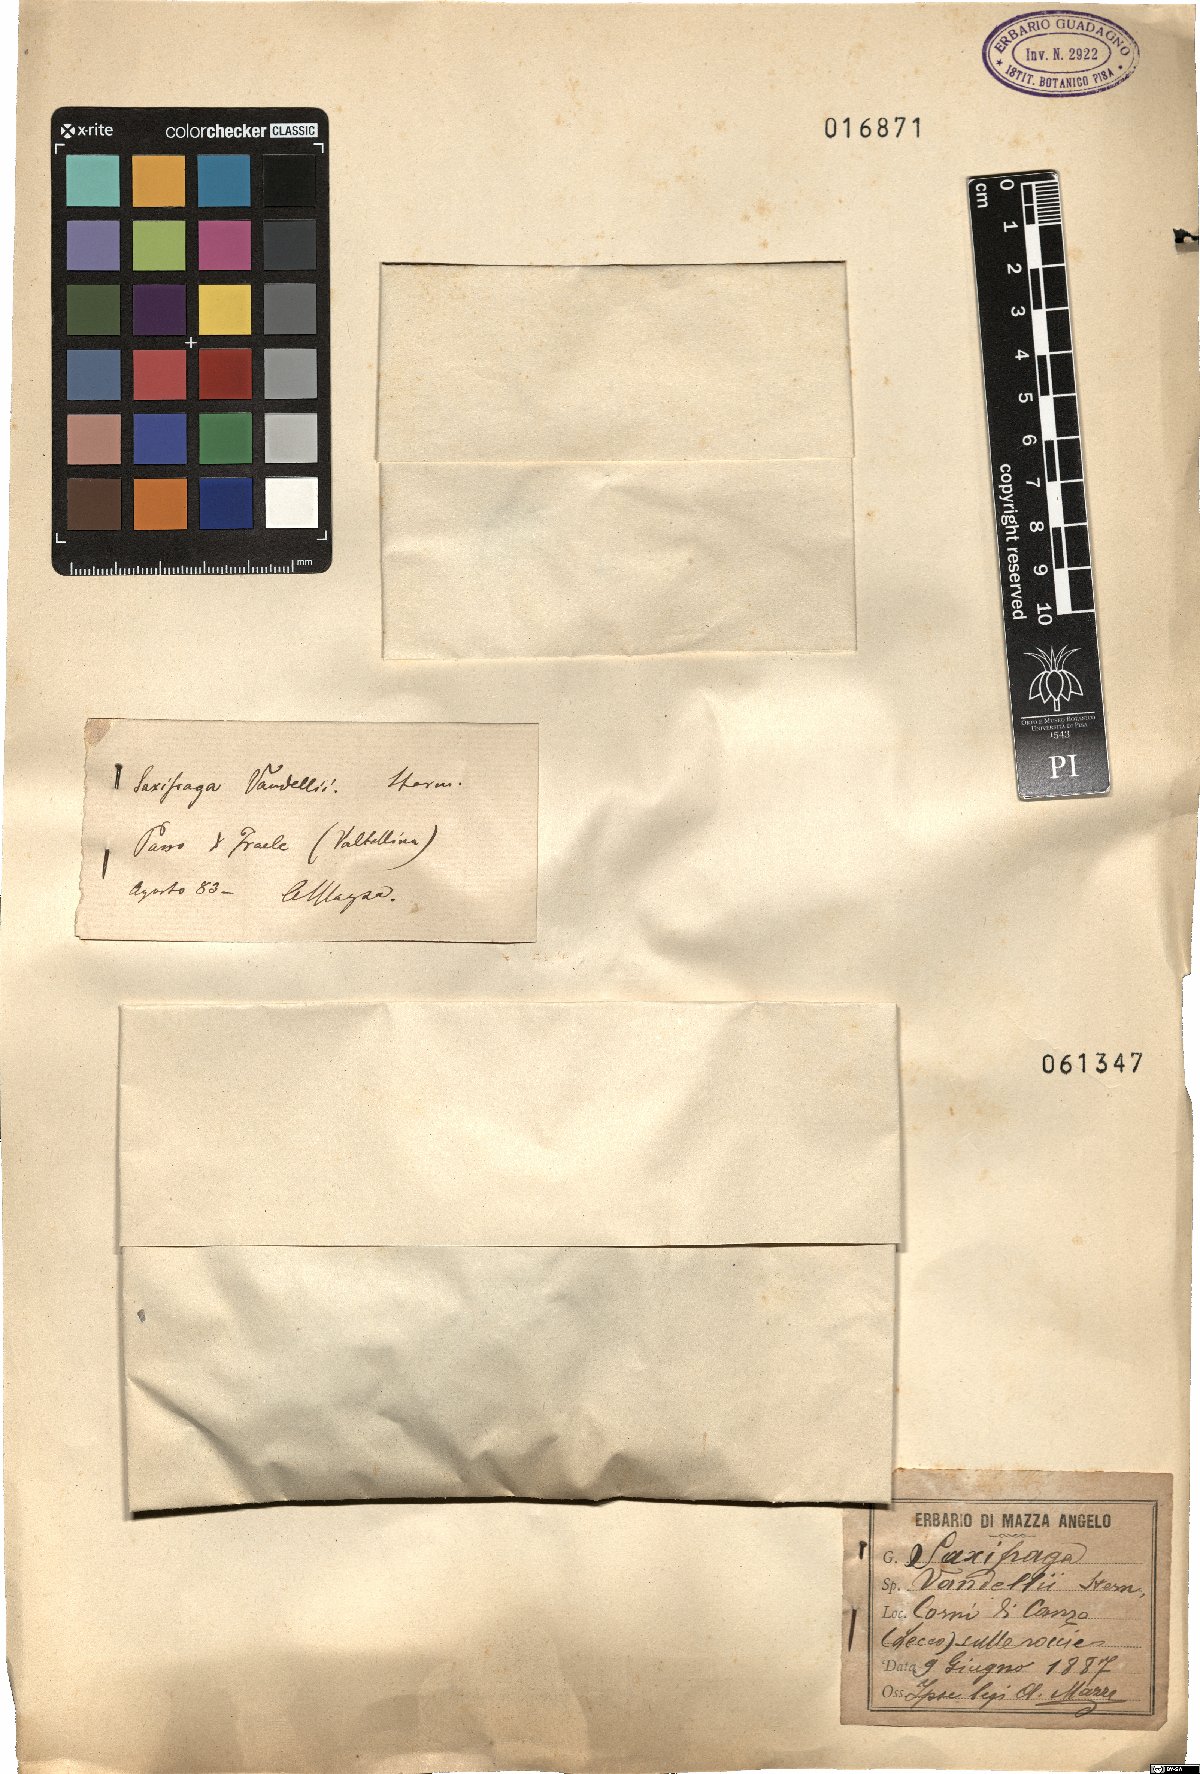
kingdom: Plantae
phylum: Tracheophyta
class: Magnoliopsida
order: Saxifragales
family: Saxifragaceae
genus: Saxifraga
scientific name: Saxifraga vandelii
